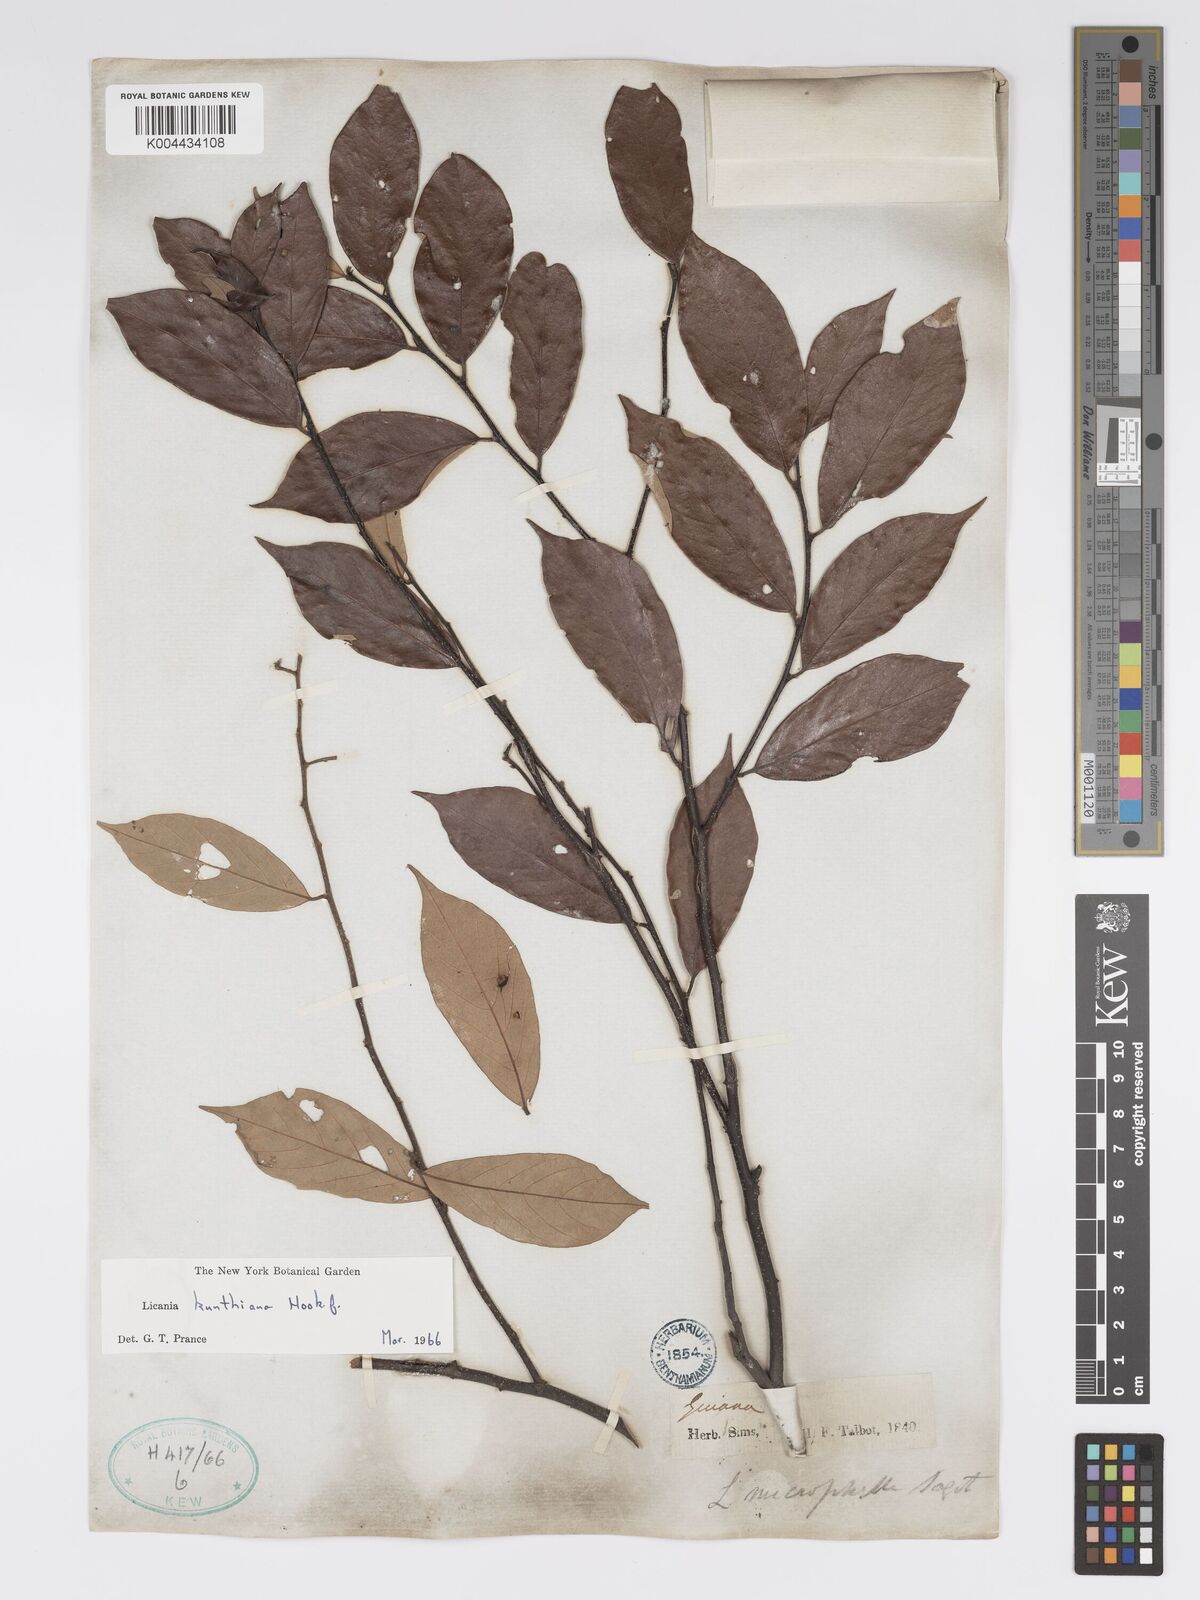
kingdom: Plantae
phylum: Tracheophyta
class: Magnoliopsida
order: Malpighiales
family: Chrysobalanaceae
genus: Licania
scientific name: Licania kunthiana
